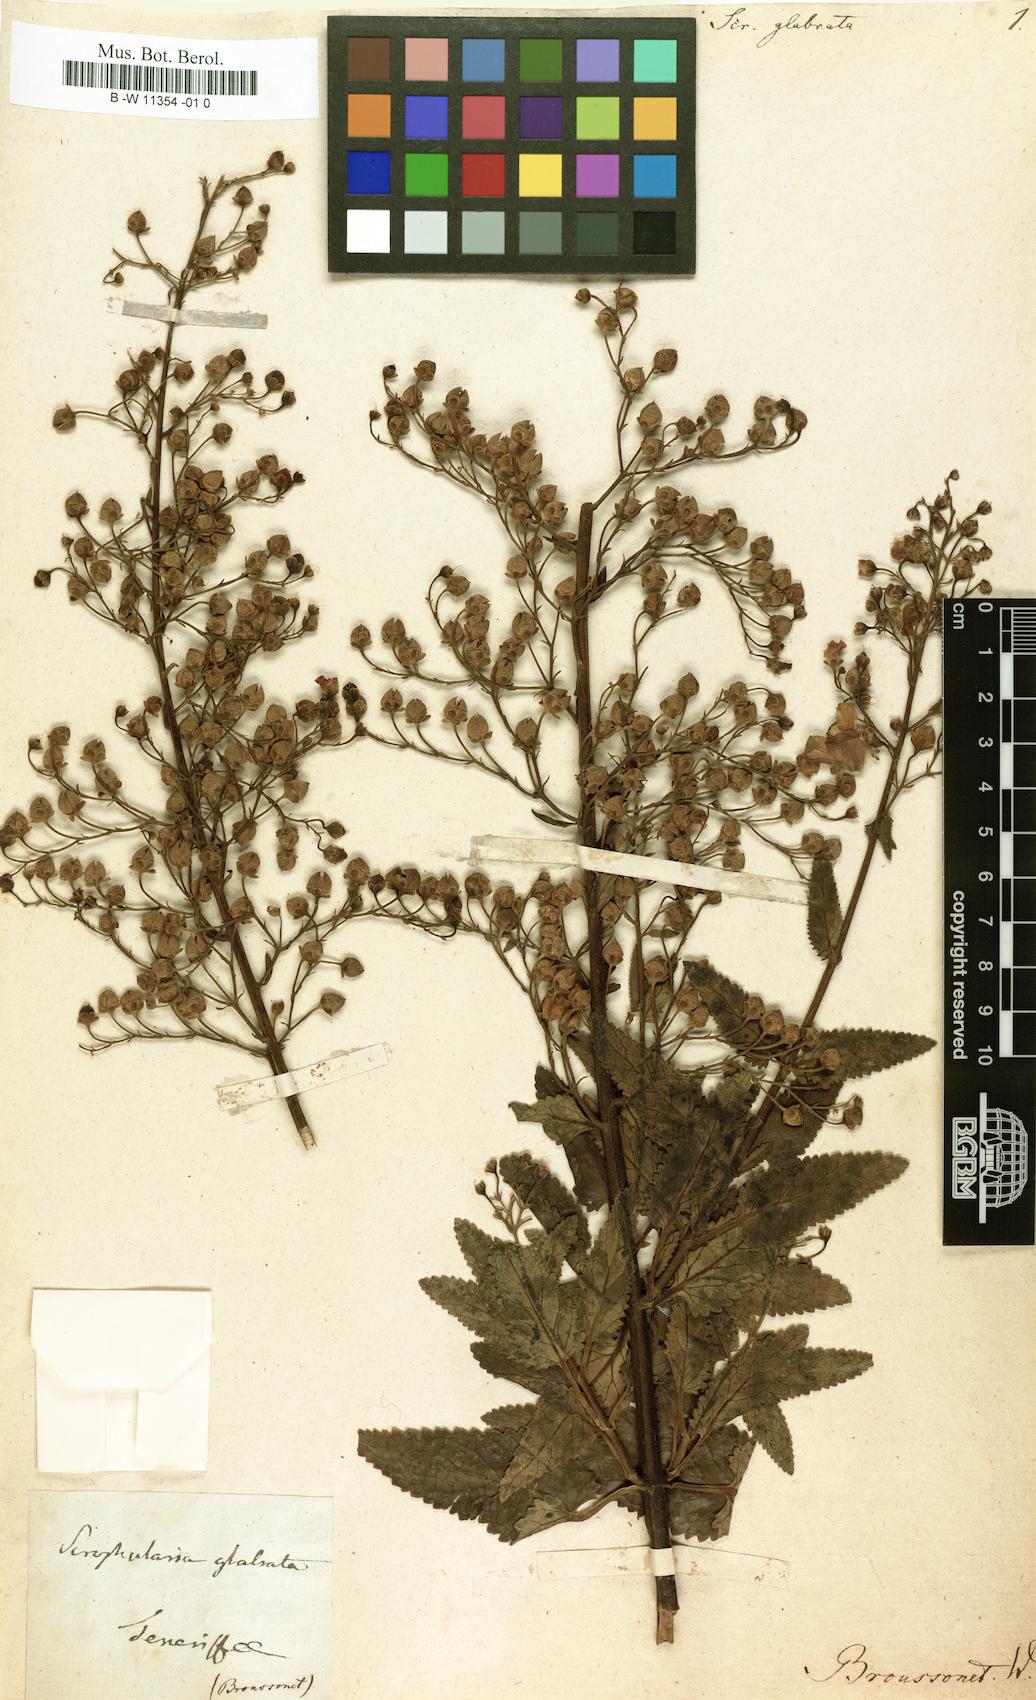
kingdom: Plantae
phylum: Tracheophyta
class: Magnoliopsida
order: Lamiales
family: Scrophulariaceae
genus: Scrophularia
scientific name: Scrophularia glabrata
